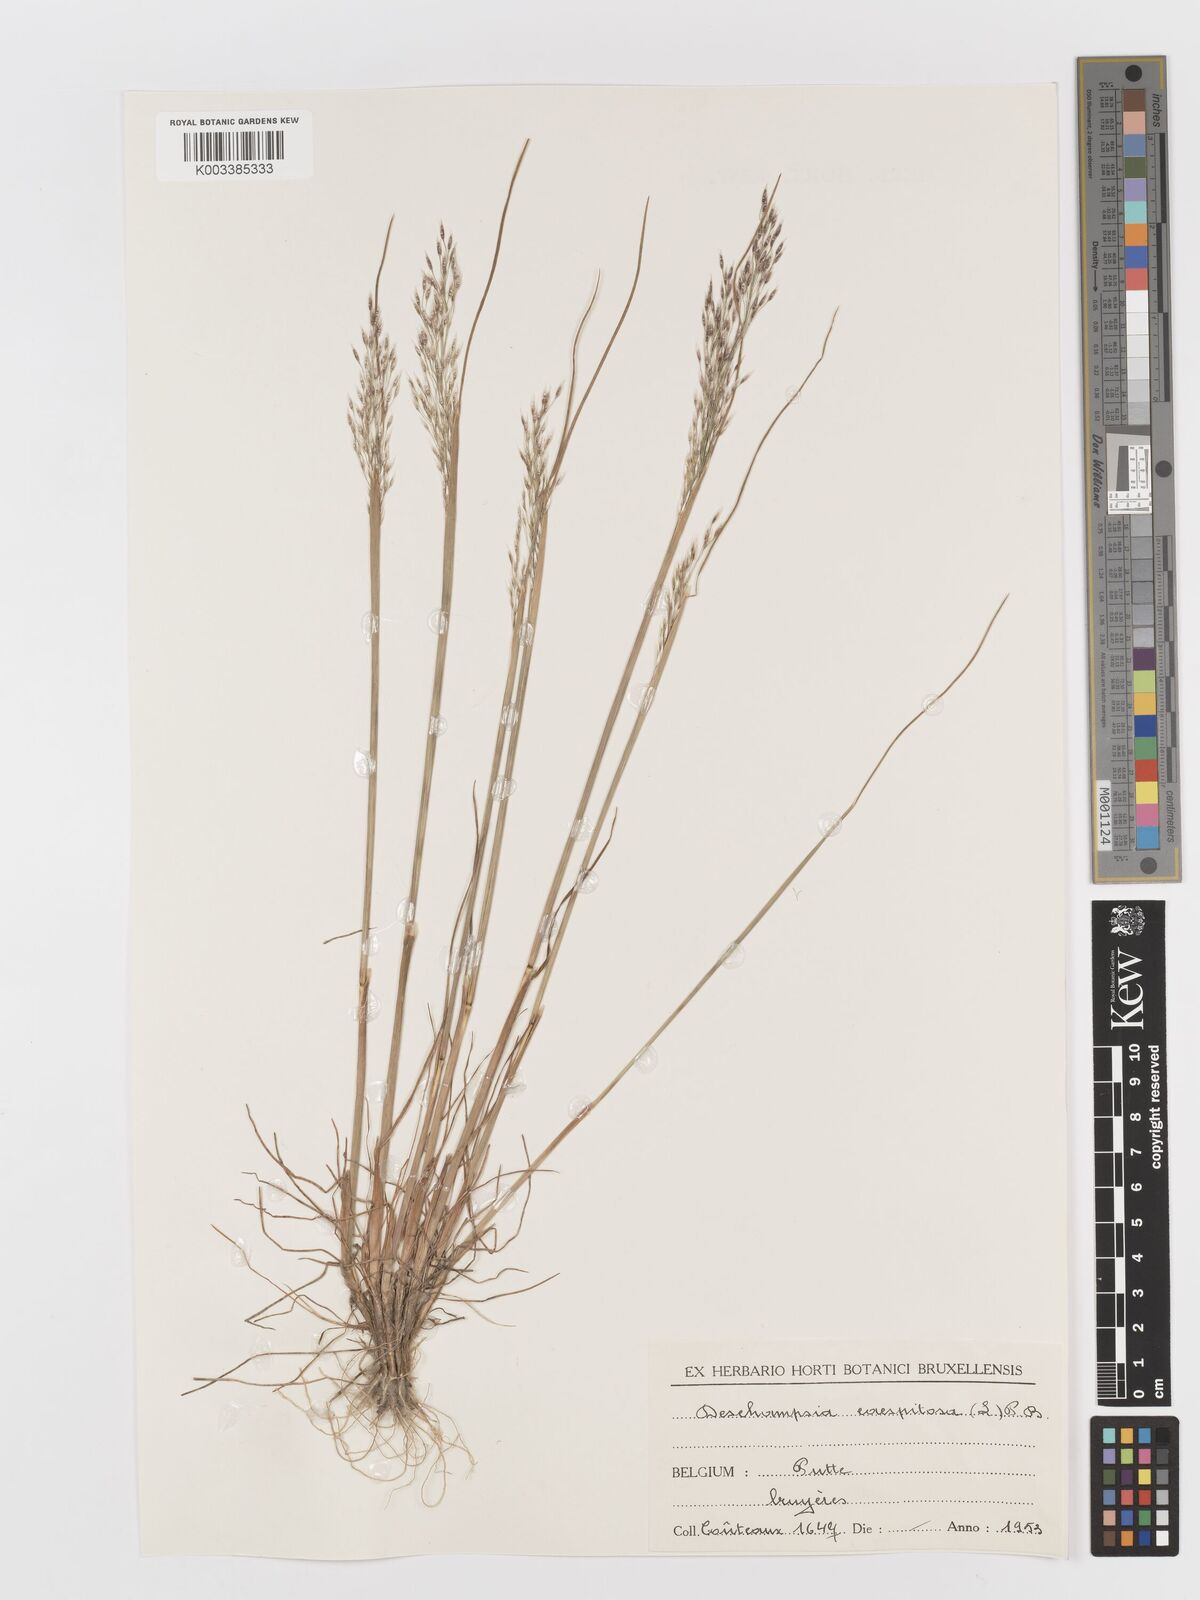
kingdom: Plantae
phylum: Tracheophyta
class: Liliopsida
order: Poales
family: Poaceae
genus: Deschampsia
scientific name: Deschampsia cespitosa
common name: Tufted hair-grass
